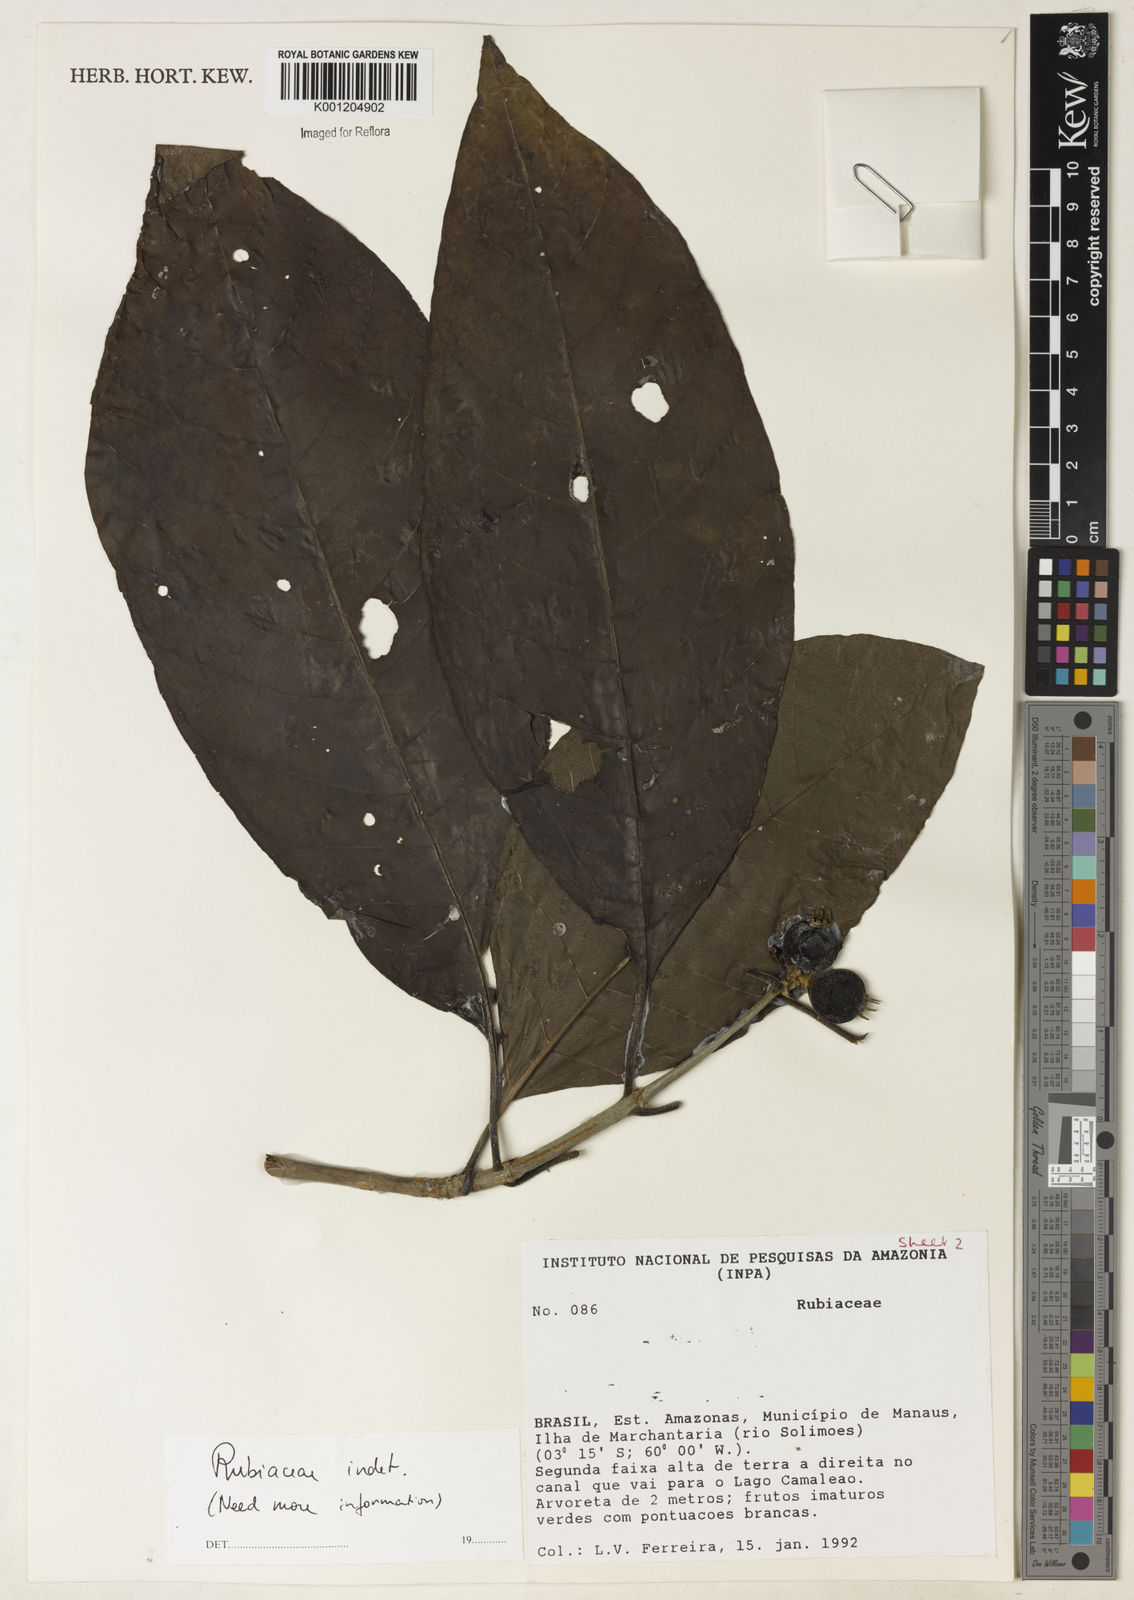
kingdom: Plantae
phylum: Tracheophyta
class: Magnoliopsida
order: Gentianales
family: Rubiaceae
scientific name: Rubiaceae
